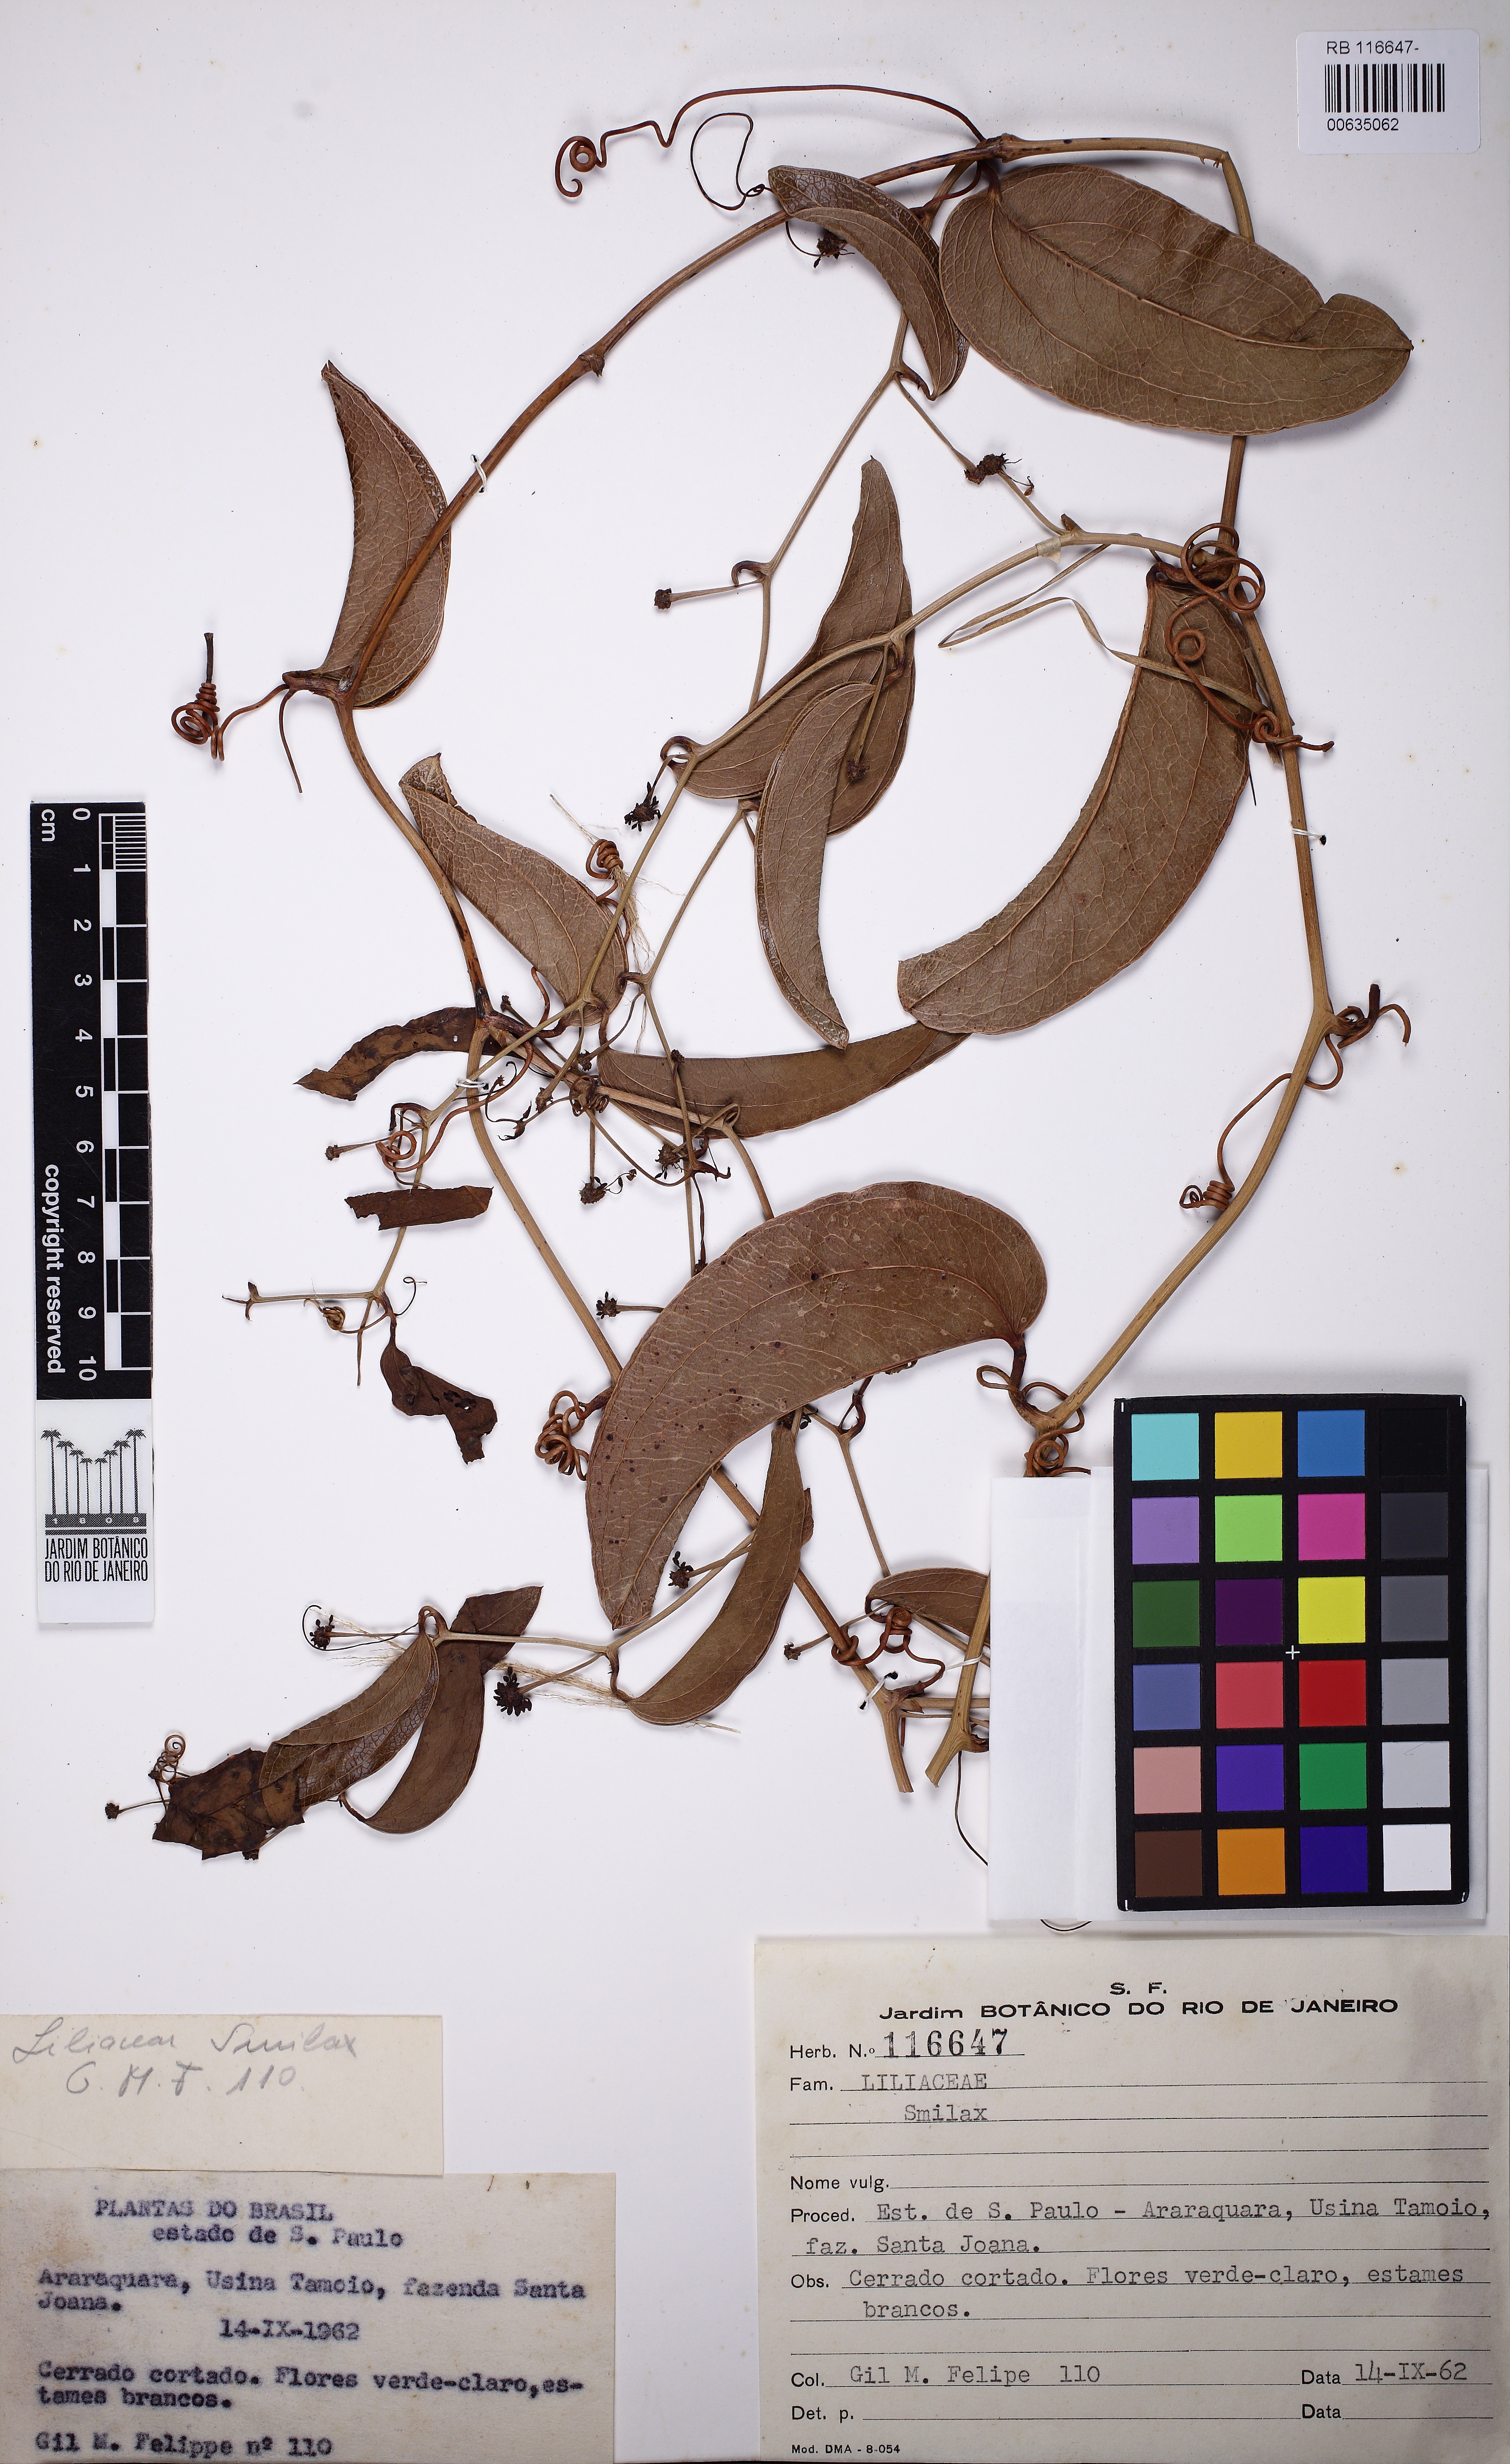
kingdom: Plantae
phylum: Tracheophyta
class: Liliopsida
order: Liliales
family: Smilacaceae
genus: Smilax
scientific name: Smilax
